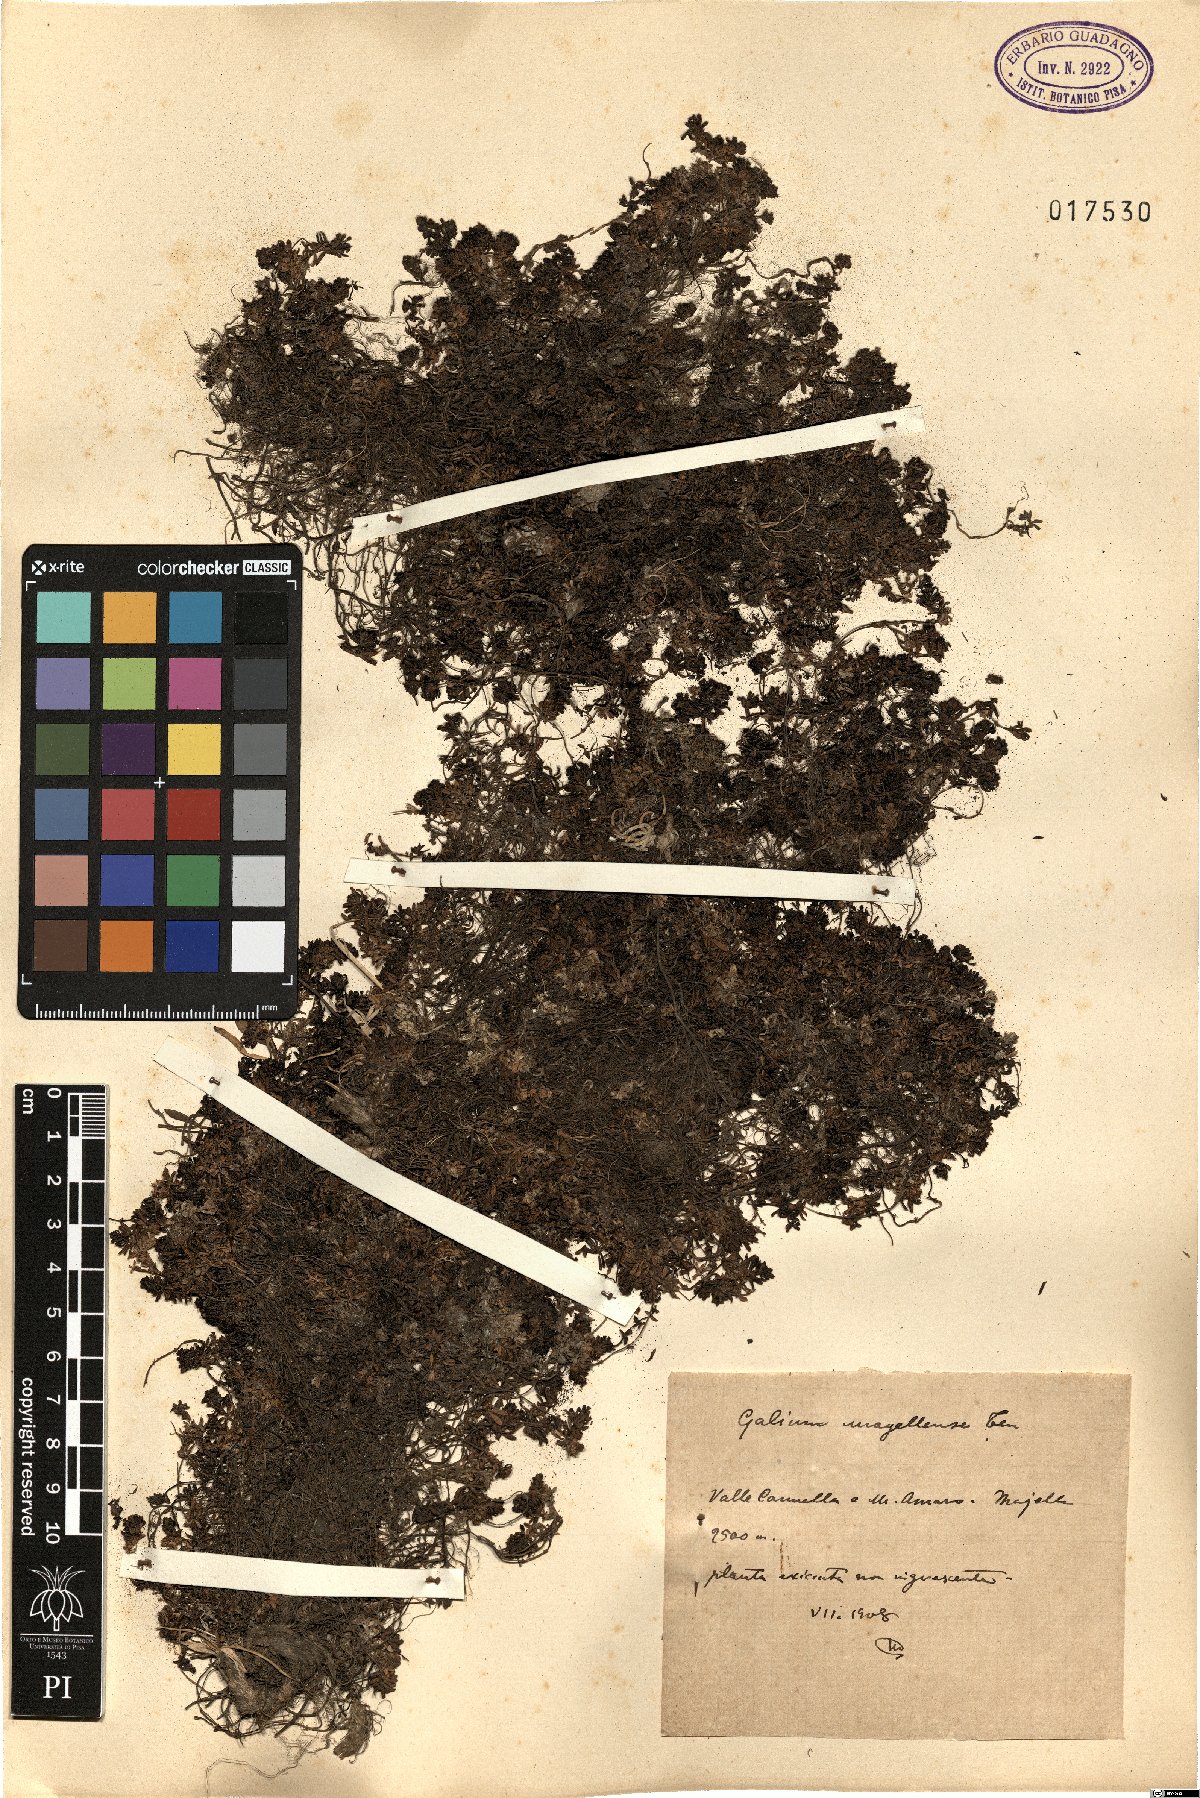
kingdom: Plantae
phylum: Tracheophyta
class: Magnoliopsida
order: Gentianales
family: Rubiaceae
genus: Galium
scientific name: Galium magellense
